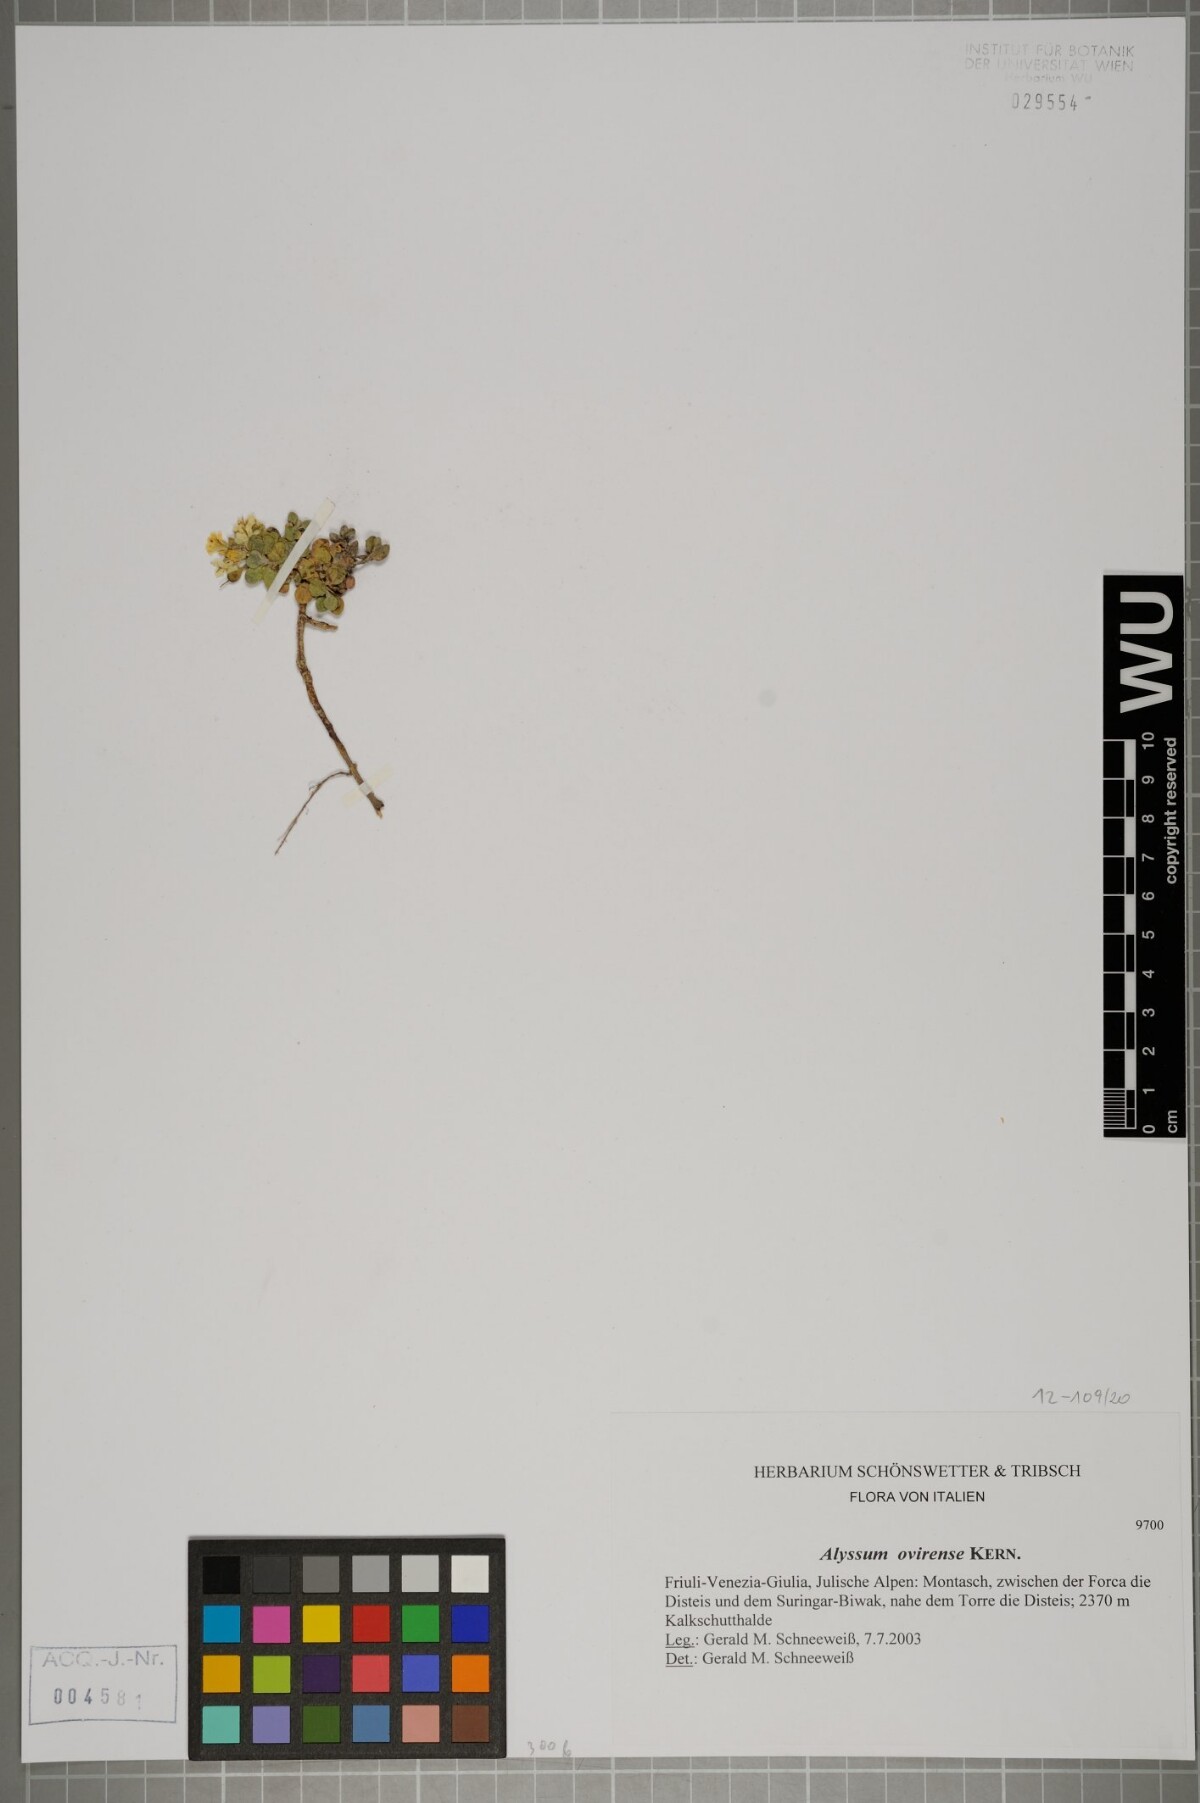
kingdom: Plantae
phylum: Tracheophyta
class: Magnoliopsida
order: Brassicales
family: Brassicaceae
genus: Alyssum
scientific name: Alyssum wulfenianum
